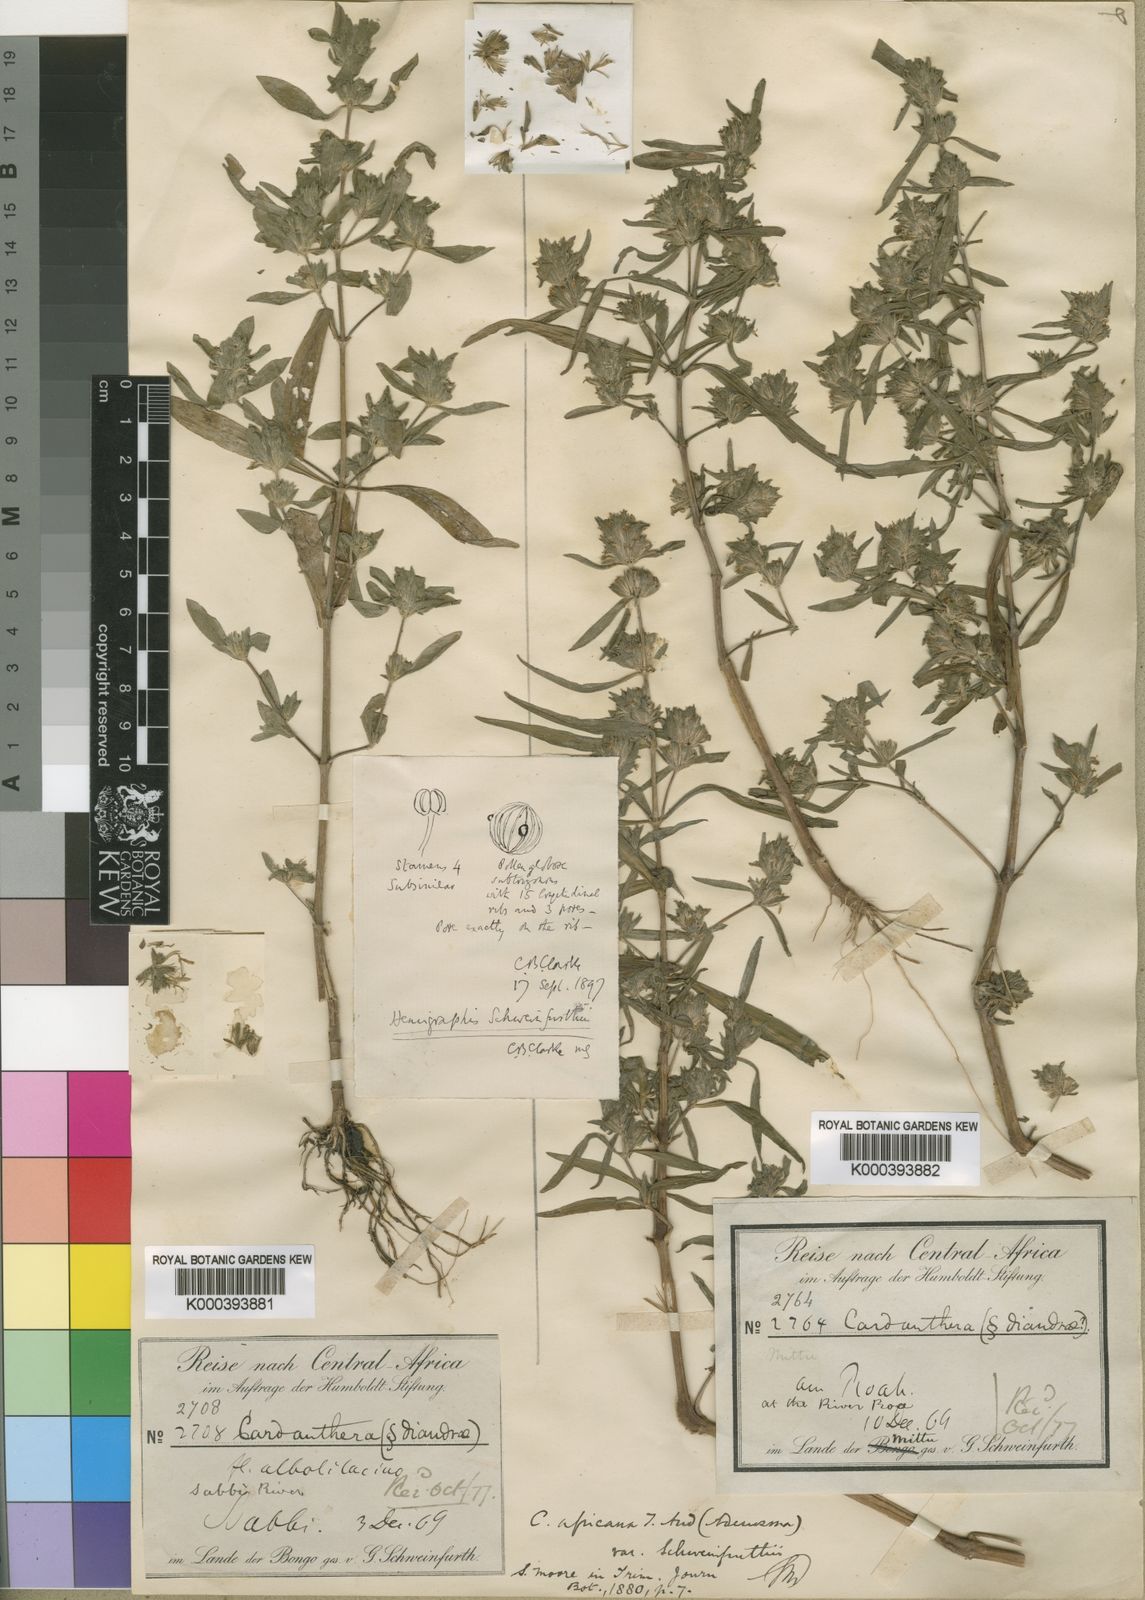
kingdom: Plantae
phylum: Tracheophyta
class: Magnoliopsida
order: Lamiales
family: Acanthaceae
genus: Hygrophila
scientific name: Hygrophila africana
